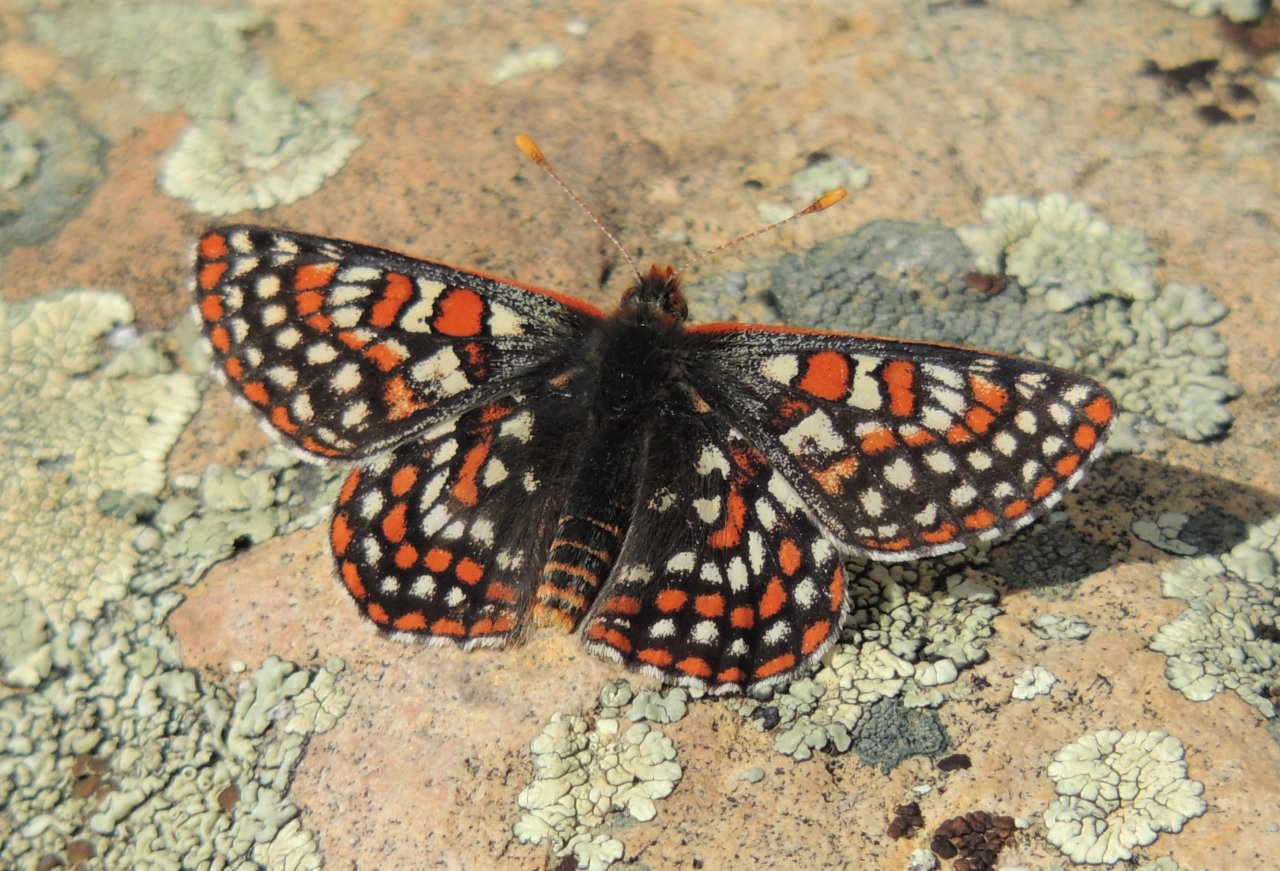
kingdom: Animalia
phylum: Arthropoda
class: Insecta
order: Lepidoptera
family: Nymphalidae
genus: Occidryas
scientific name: Occidryas editha
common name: Edith's Checkerspot
